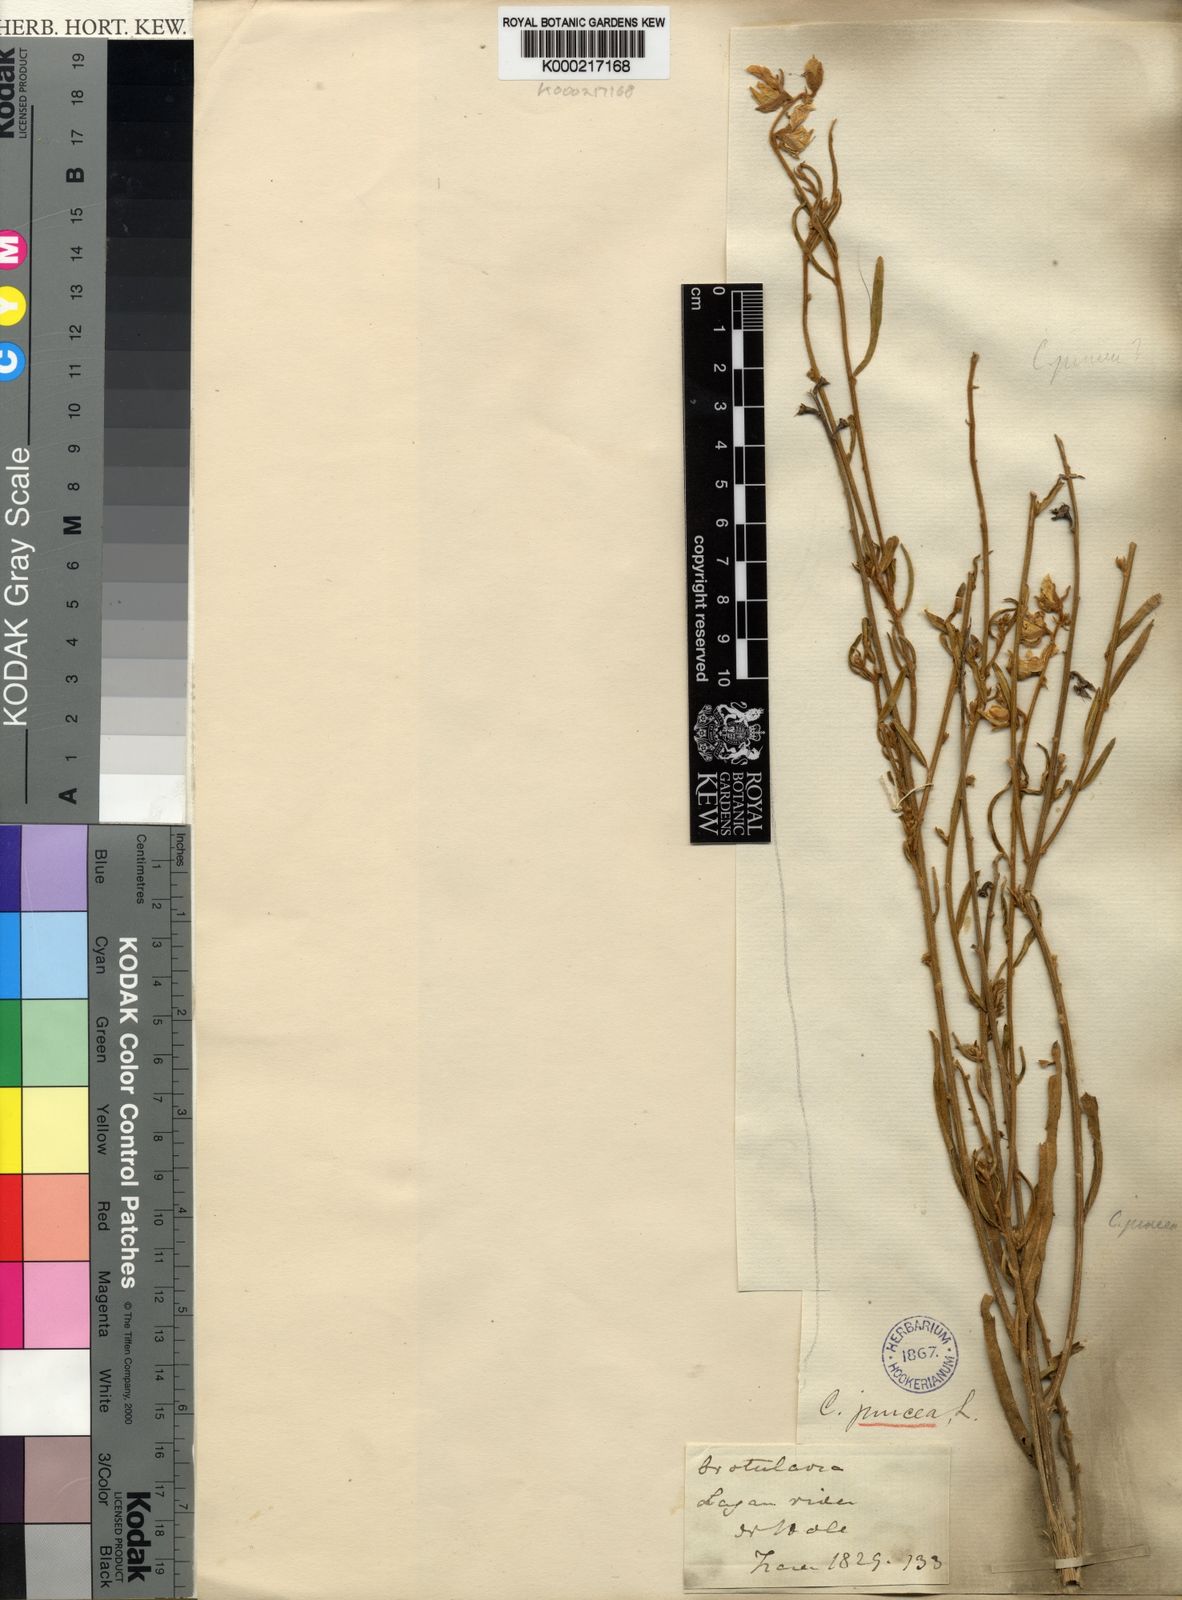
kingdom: Plantae
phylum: Tracheophyta
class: Magnoliopsida
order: Fabales
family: Fabaceae
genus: Crotalaria
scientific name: Crotalaria juncea
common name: Sunn hemp
